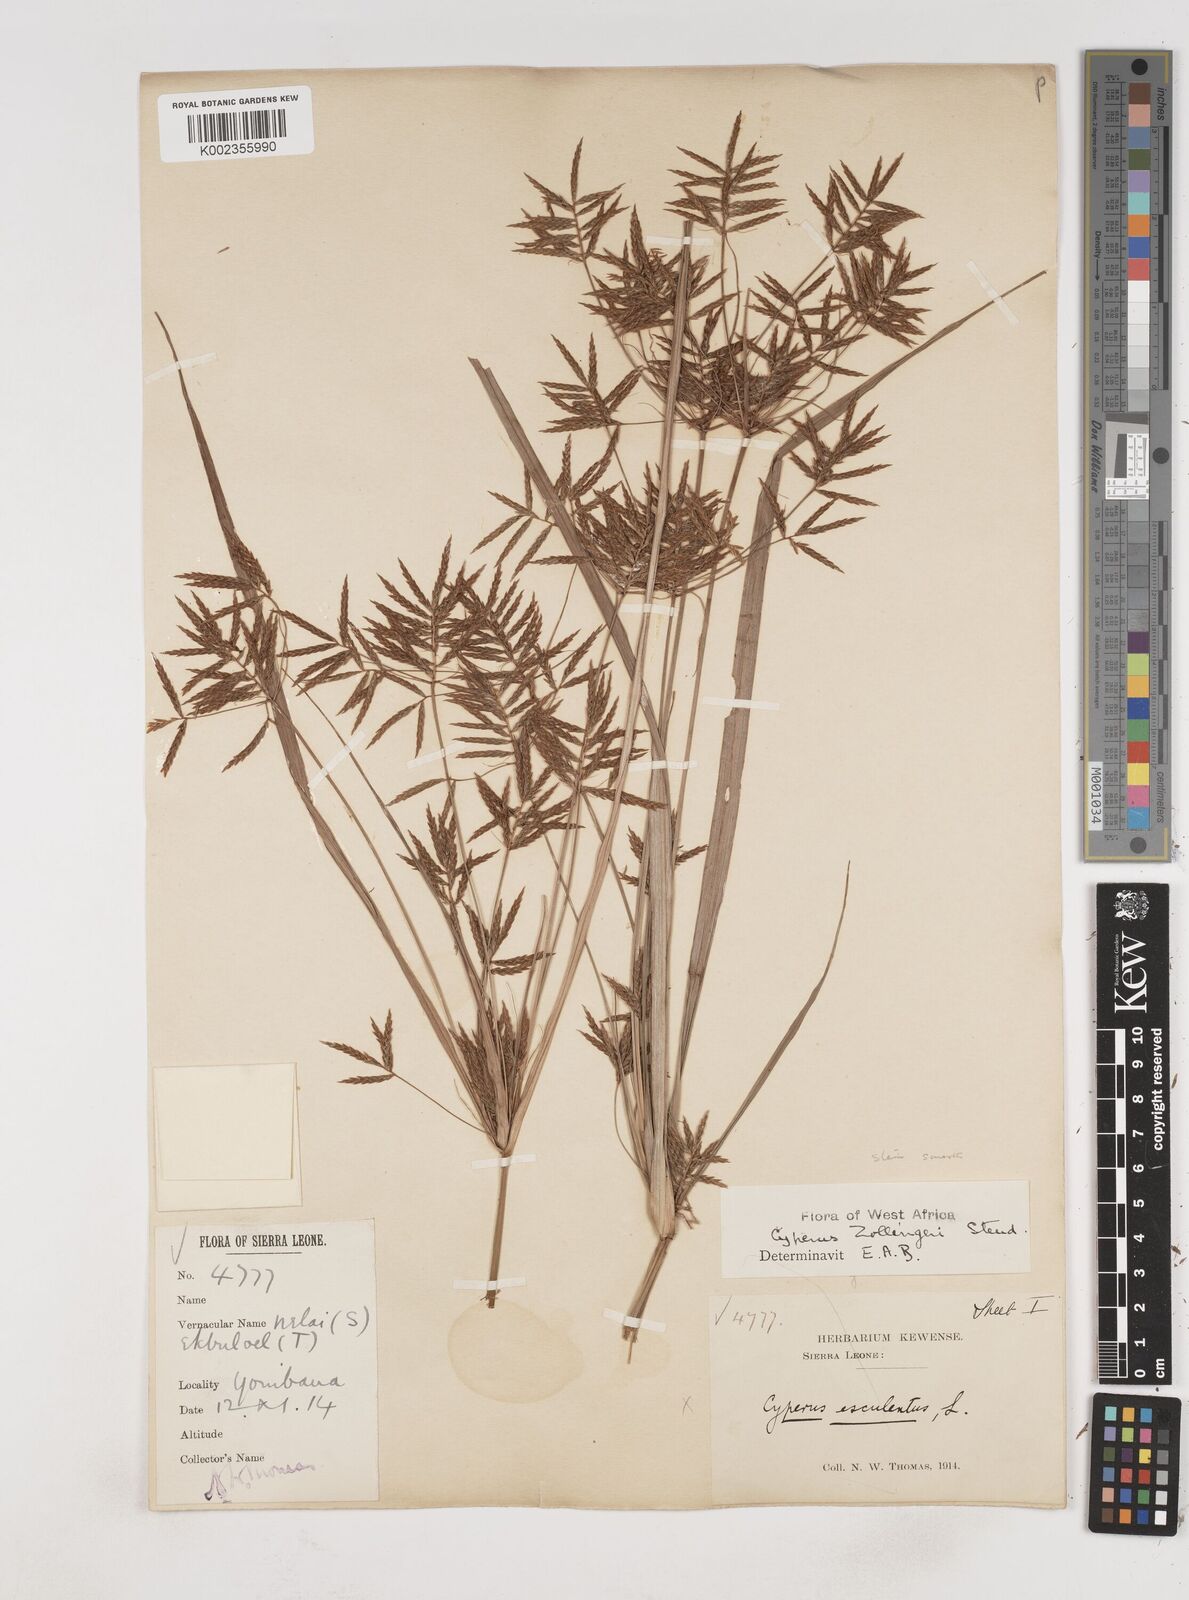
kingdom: Plantae
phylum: Tracheophyta
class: Liliopsida
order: Poales
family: Cyperaceae
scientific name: Cyperaceae
